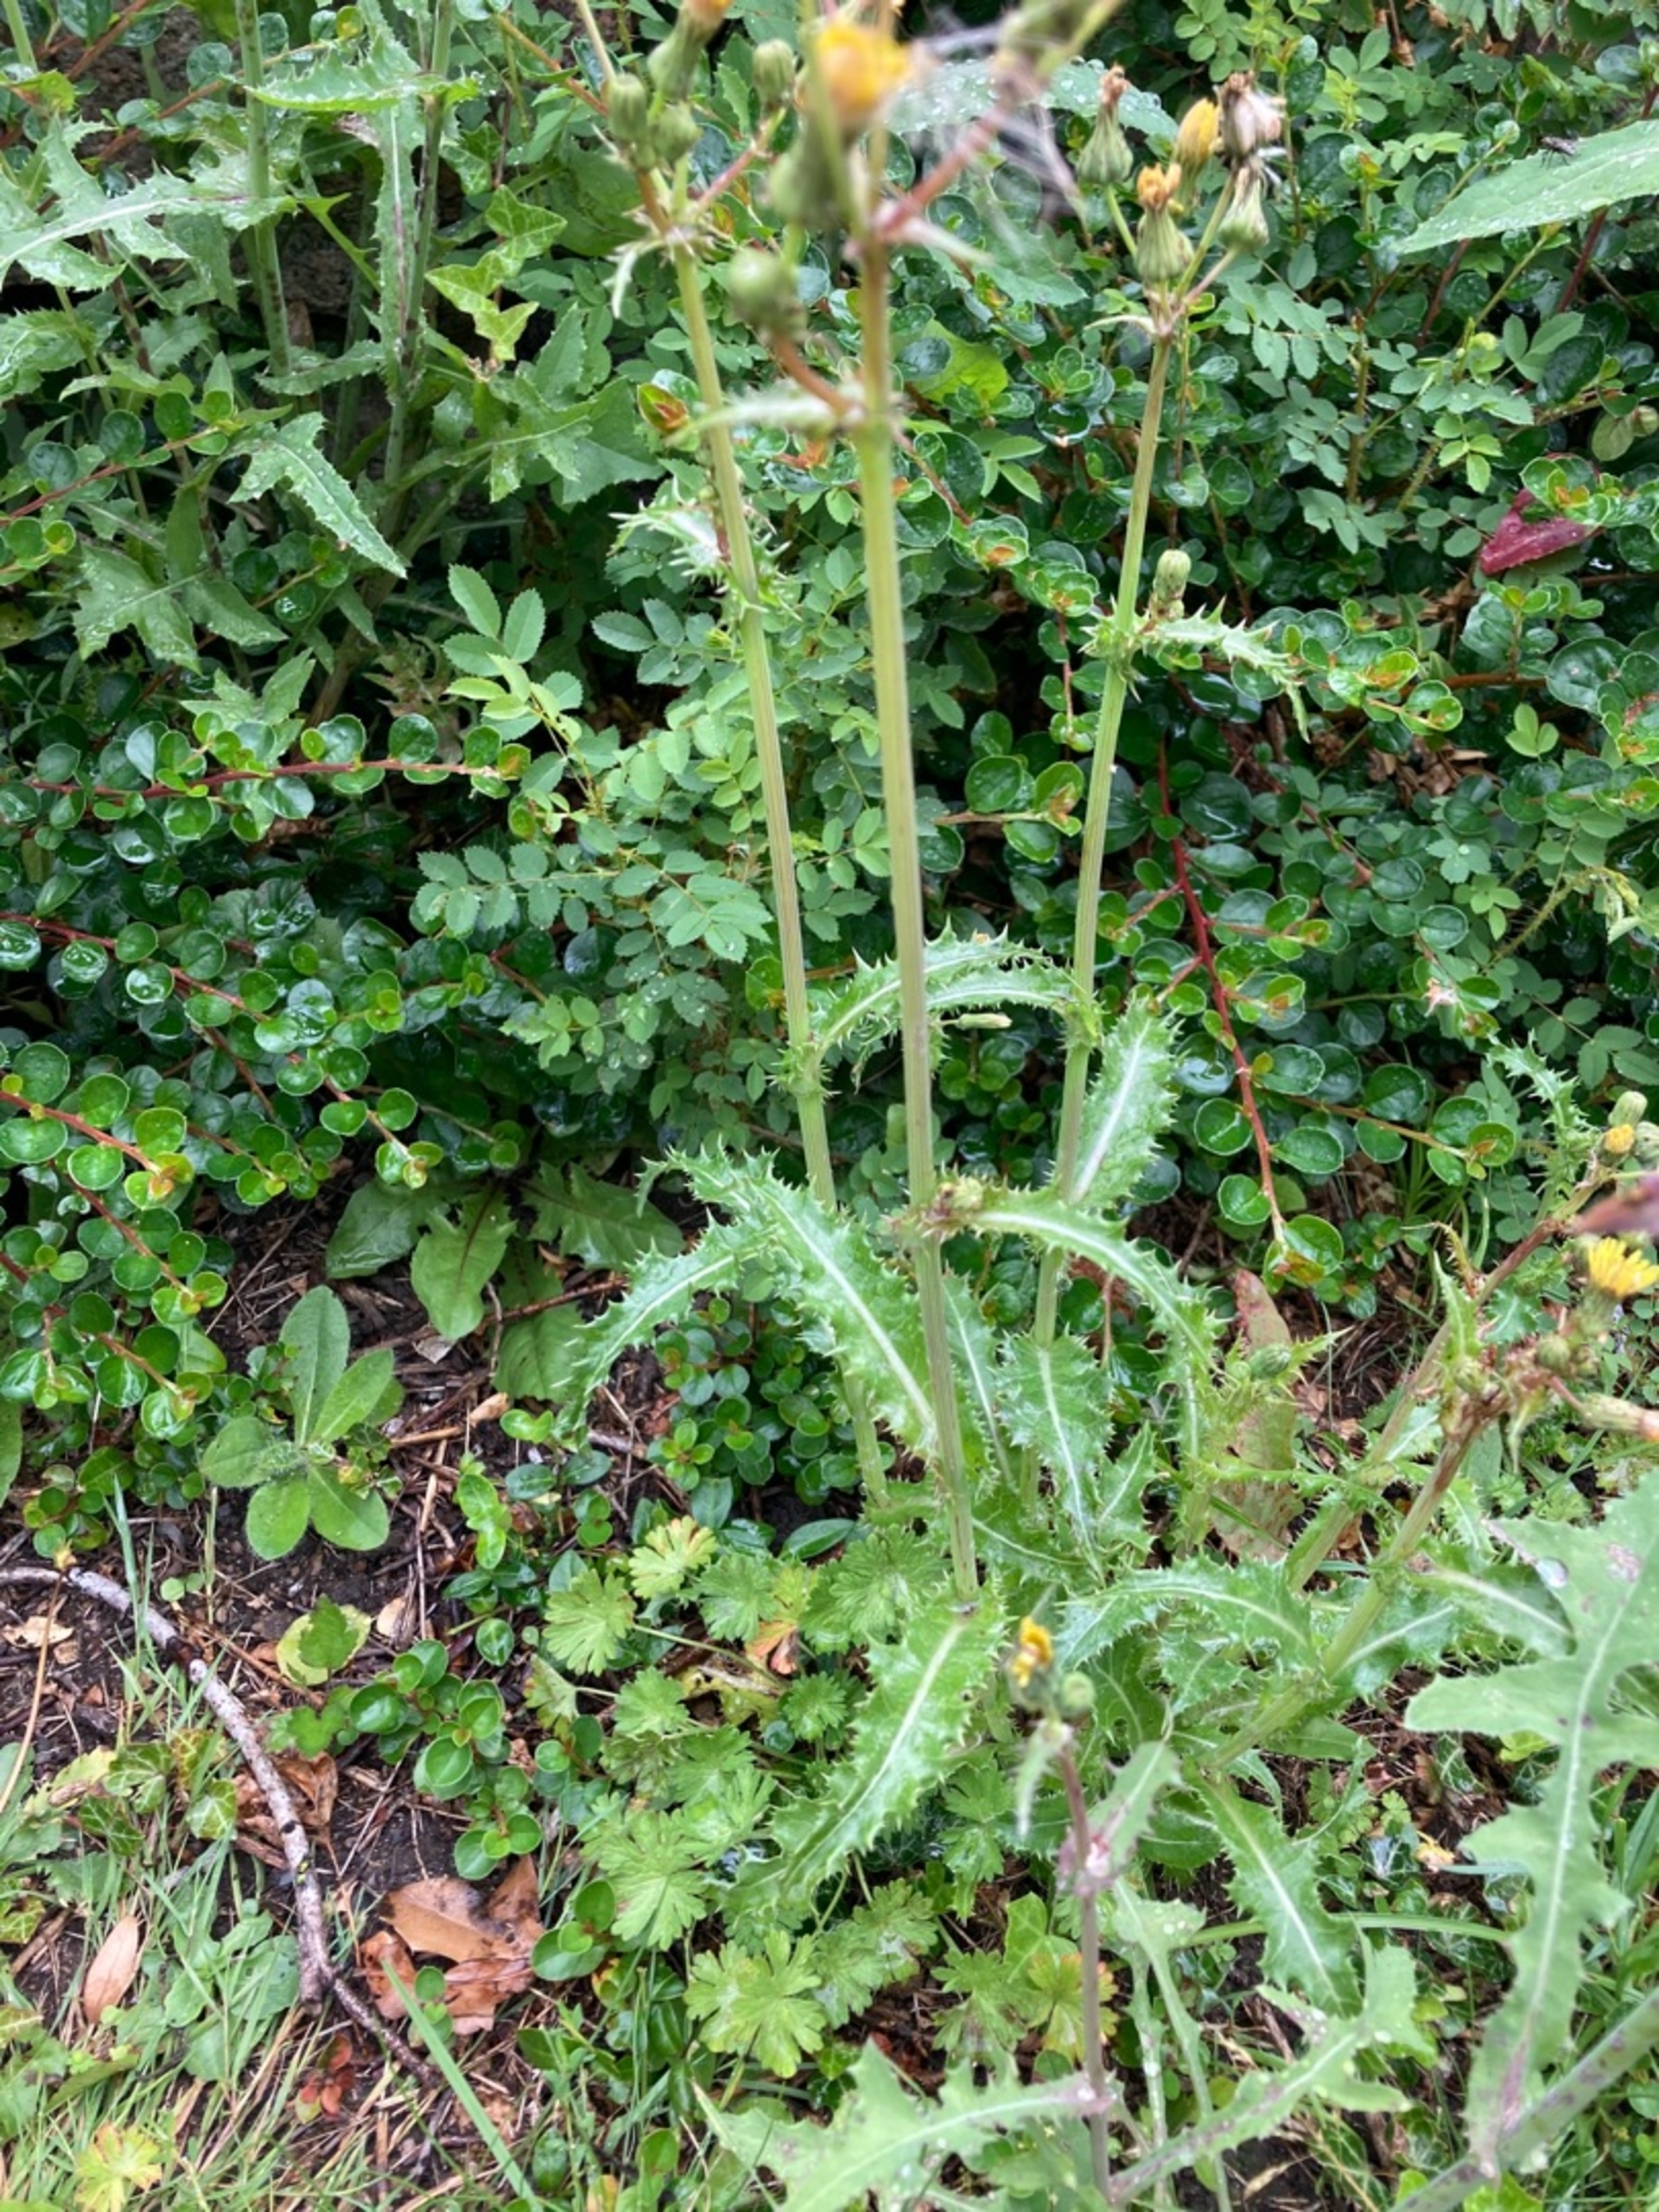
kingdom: Plantae
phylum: Tracheophyta
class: Magnoliopsida
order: Asterales
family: Asteraceae
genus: Sonchus
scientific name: Sonchus asper
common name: Ru svinemælk
